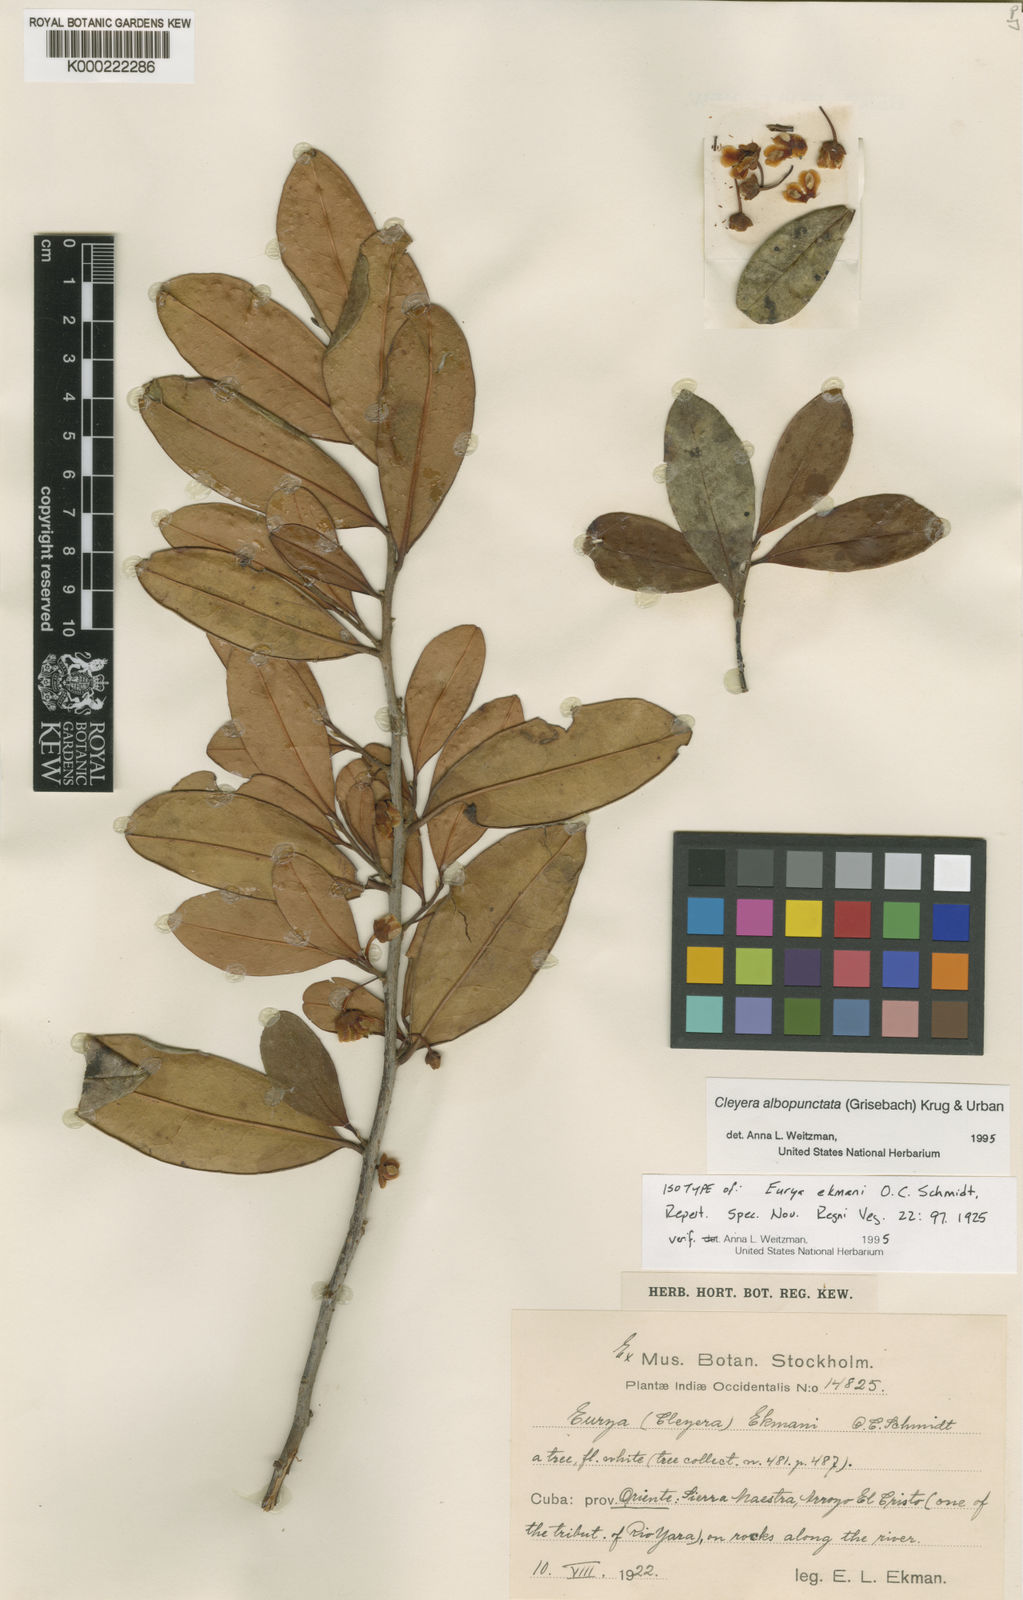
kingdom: Plantae
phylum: Tracheophyta
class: Magnoliopsida
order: Ericales
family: Pentaphylacaceae
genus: Cleyera
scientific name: Cleyera ekmanii
